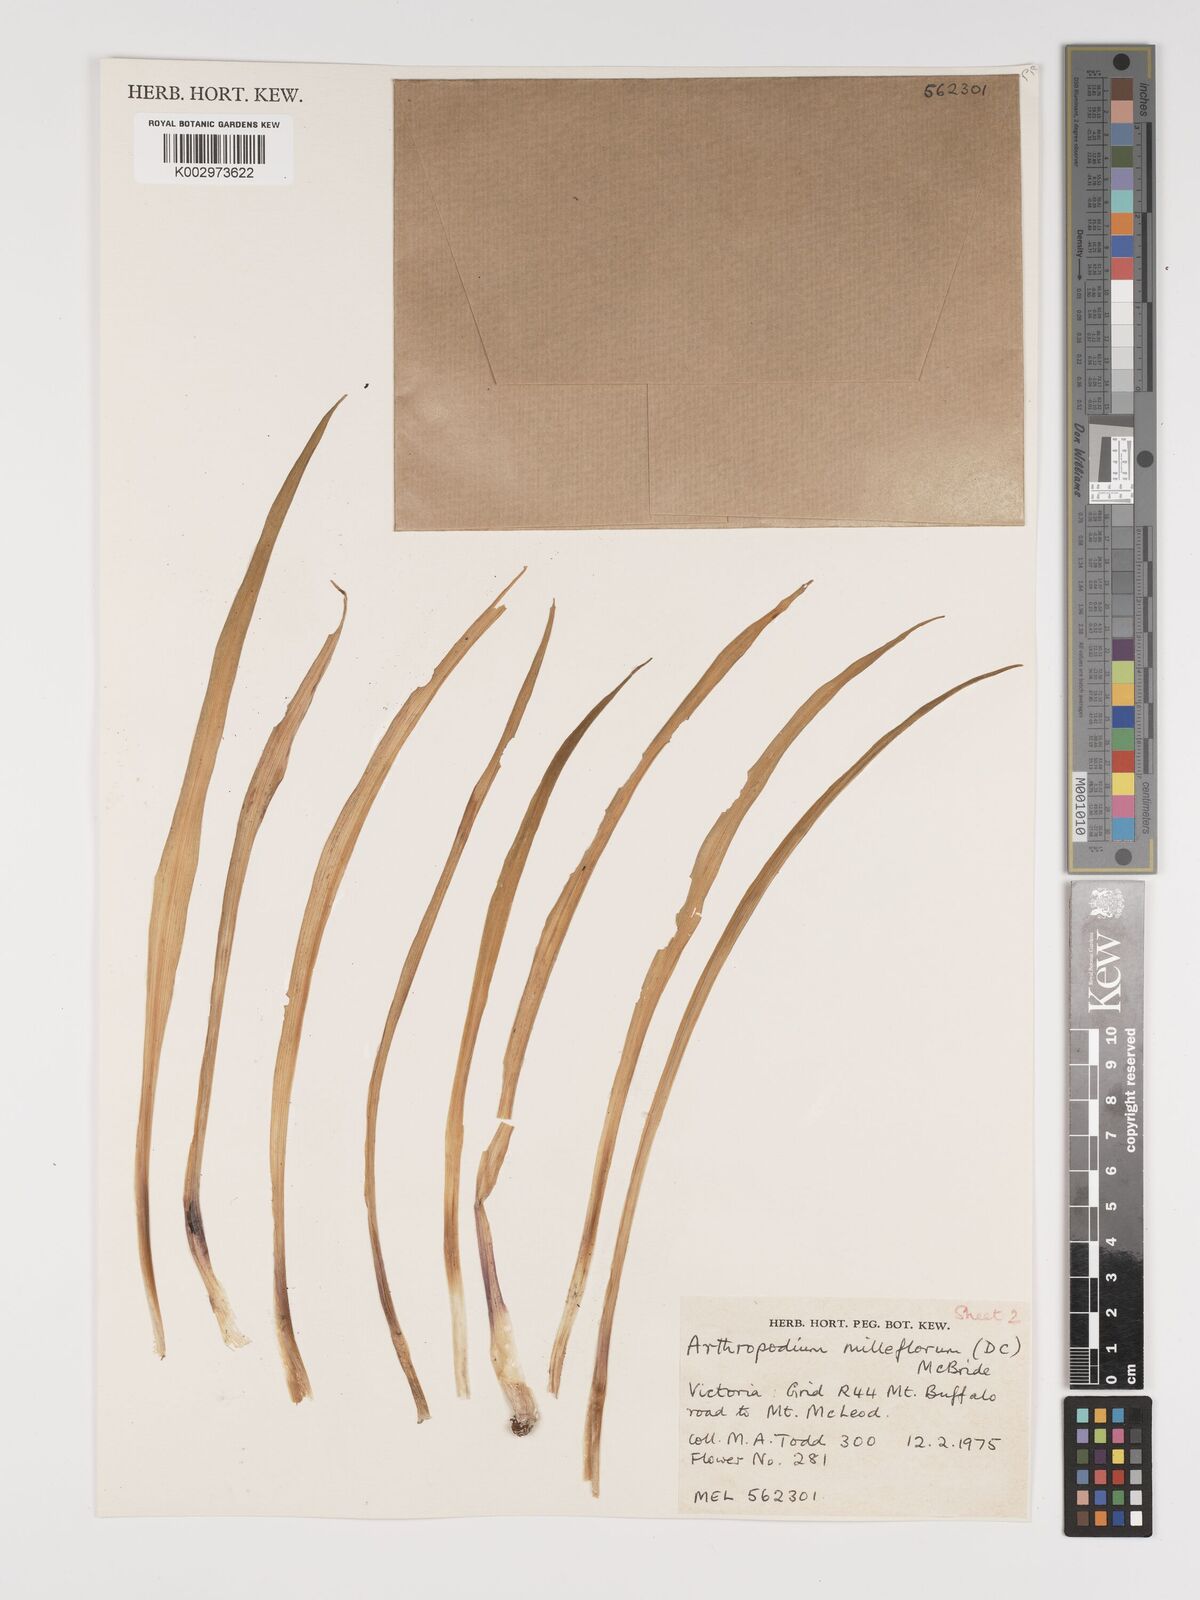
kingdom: Plantae
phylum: Tracheophyta
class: Liliopsida
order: Asparagales
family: Asparagaceae
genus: Arthropodium
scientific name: Arthropodium milleflorum
